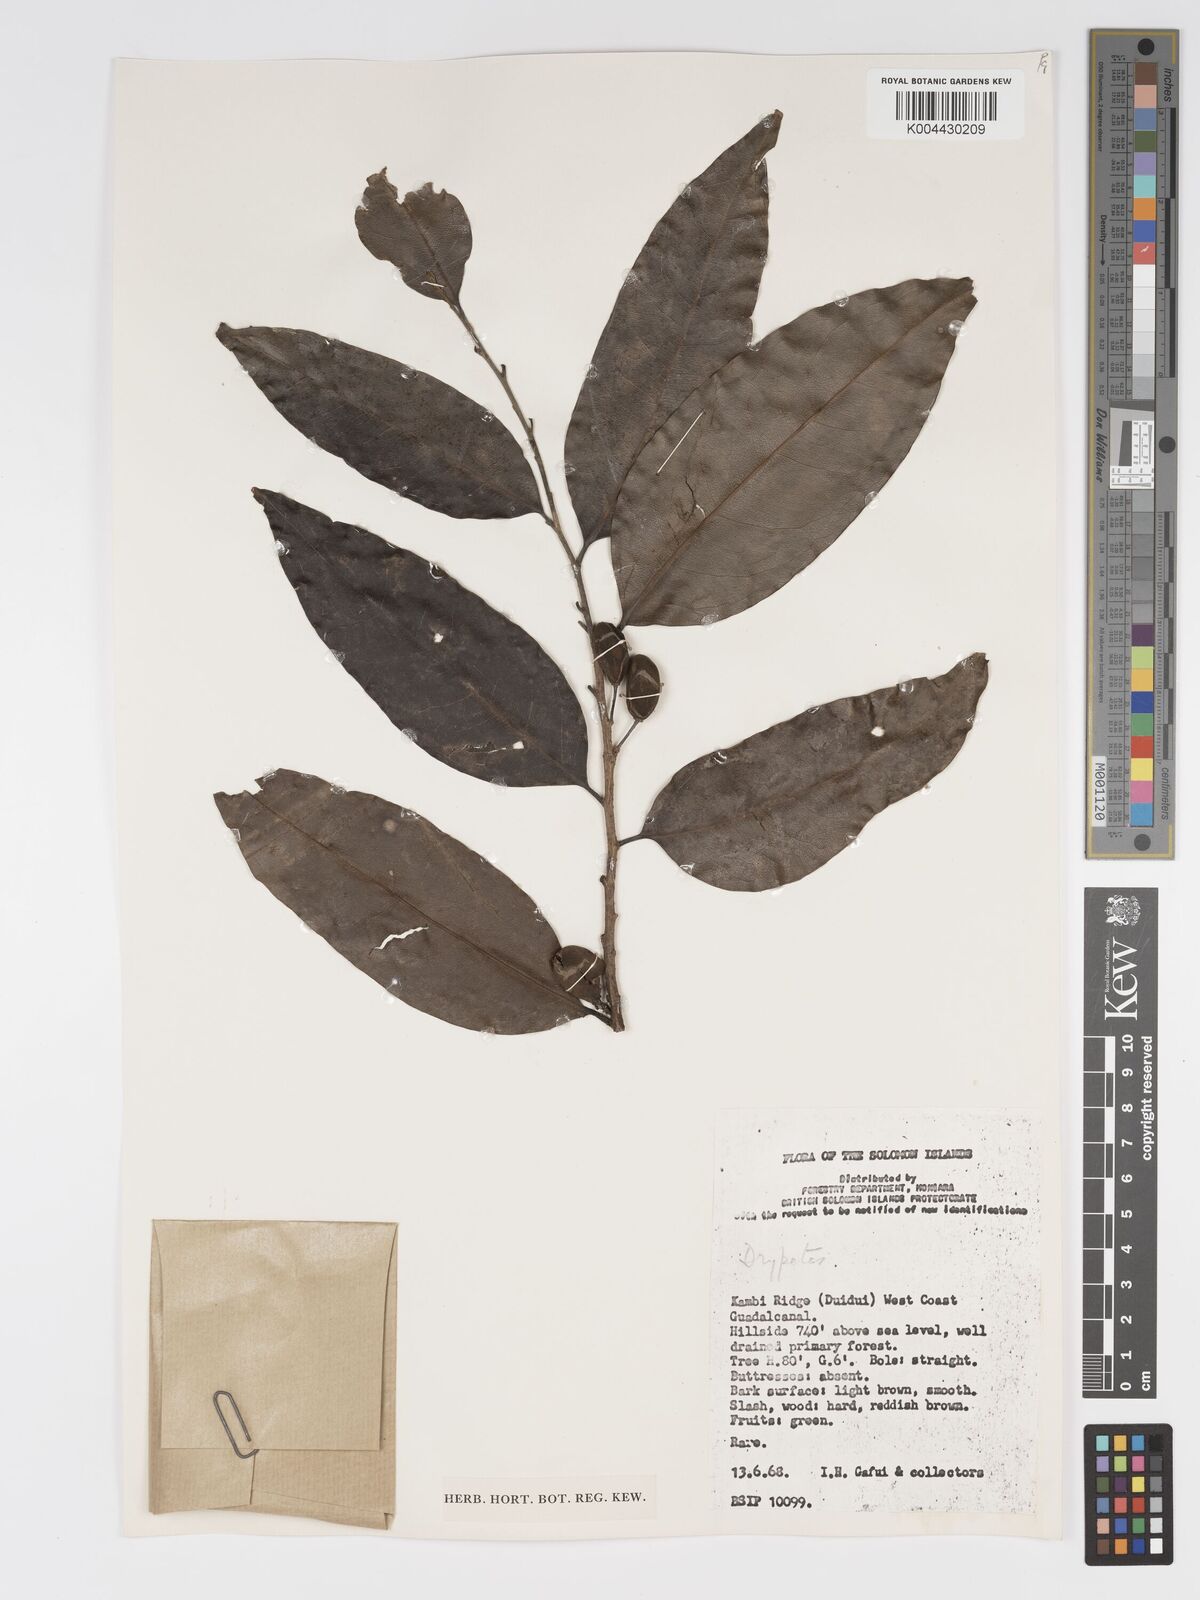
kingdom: Plantae
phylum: Tracheophyta
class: Magnoliopsida
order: Malpighiales
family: Putranjivaceae
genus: Drypetes
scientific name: Drypetes lasiogynoides
